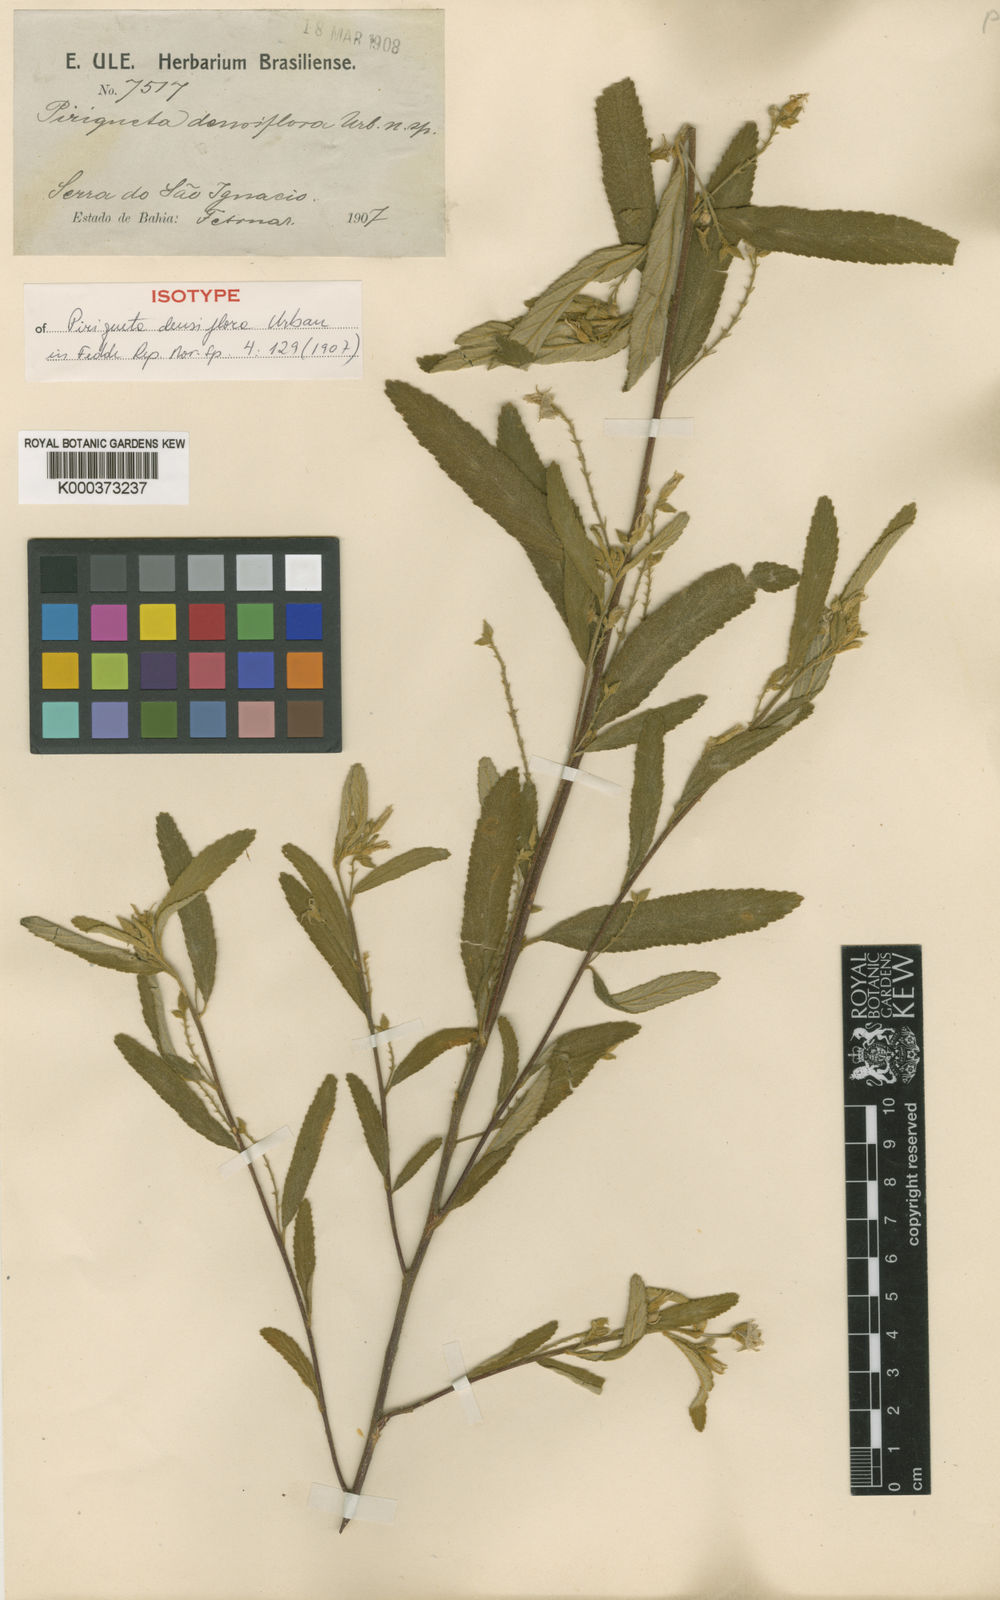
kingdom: Plantae
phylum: Tracheophyta
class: Magnoliopsida
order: Malpighiales
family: Turneraceae
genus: Piriqueta
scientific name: Piriqueta densiflora
